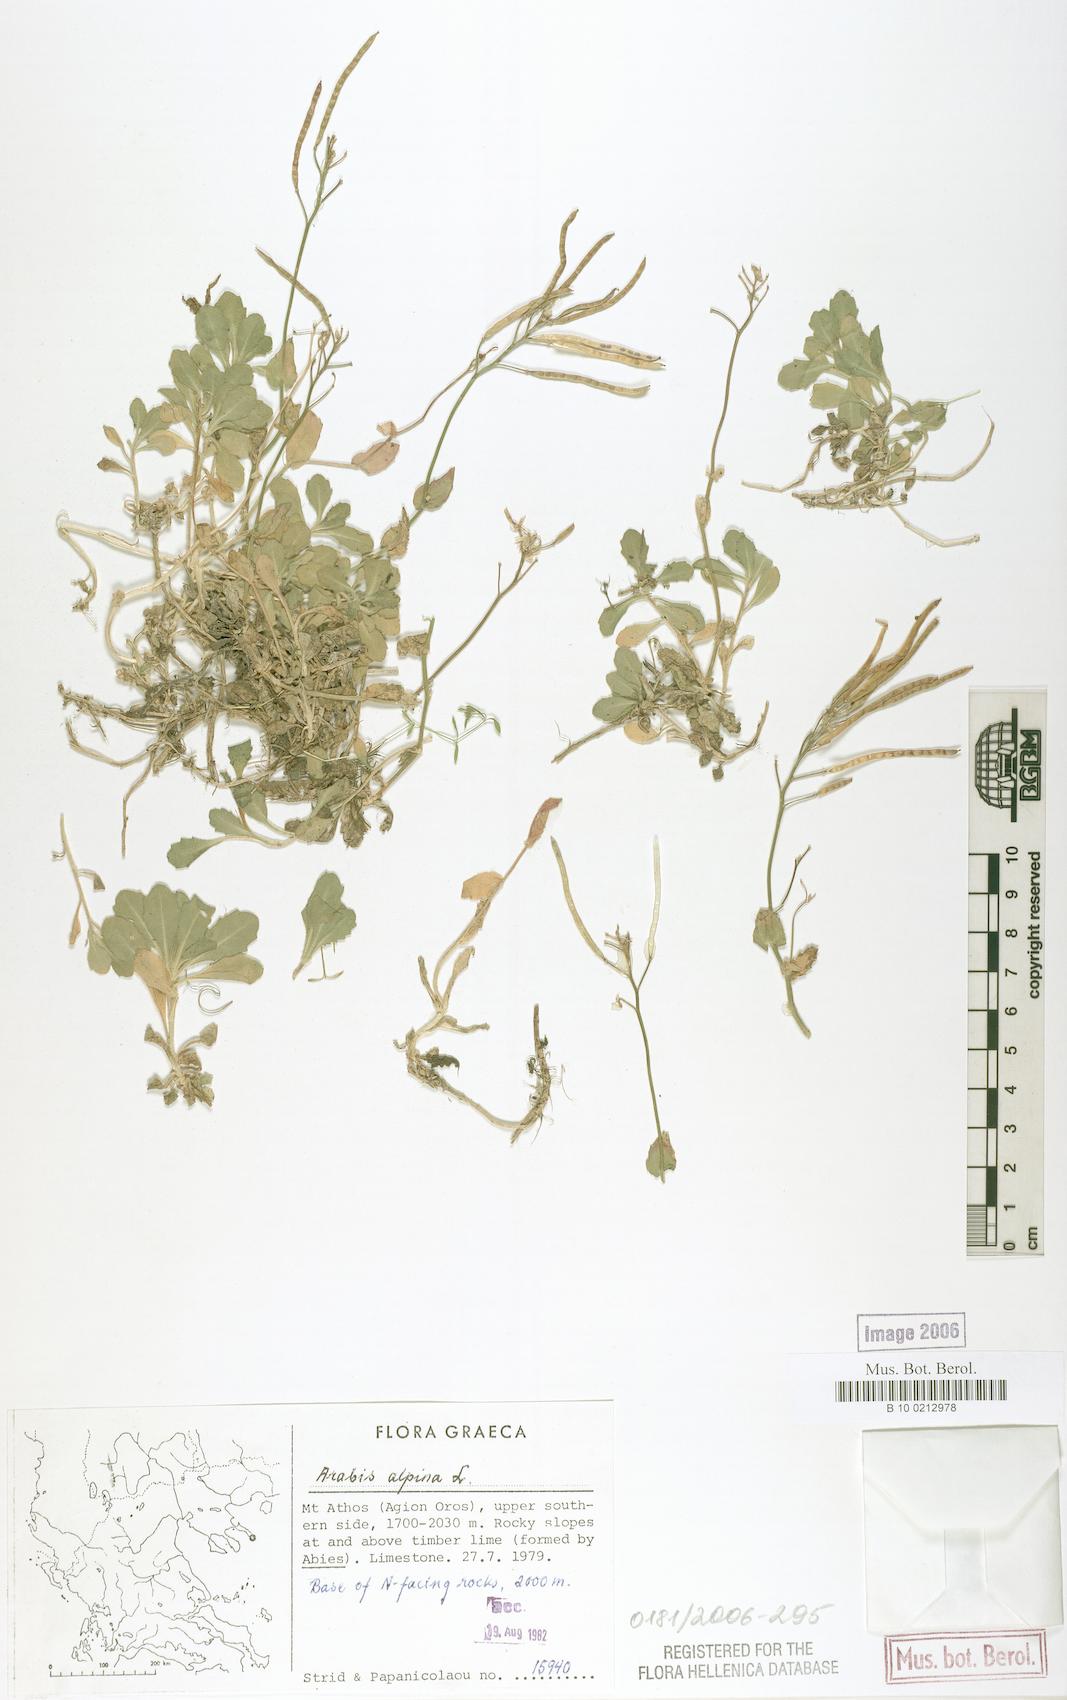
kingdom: Plantae
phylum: Tracheophyta
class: Magnoliopsida
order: Brassicales
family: Brassicaceae
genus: Arabis
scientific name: Arabis alpina
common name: Alpine rock-cress
